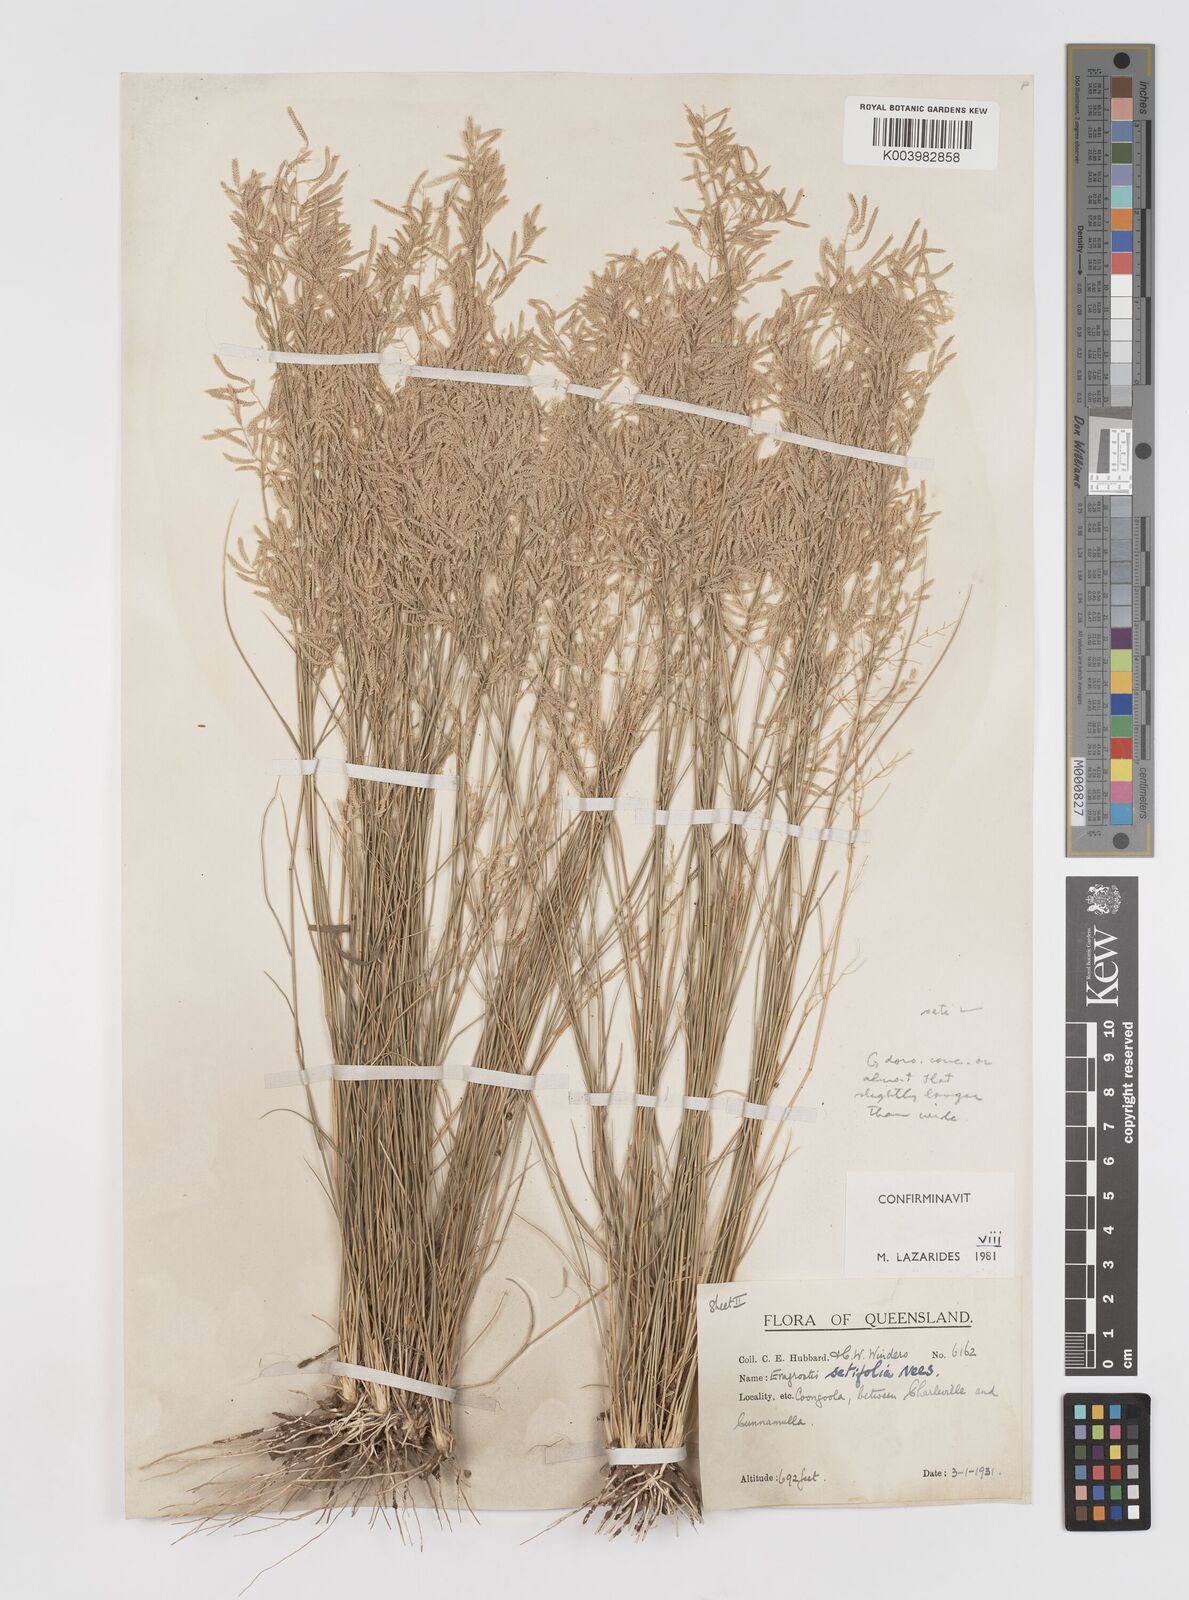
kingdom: Plantae
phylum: Tracheophyta
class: Liliopsida
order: Poales
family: Poaceae
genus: Eragrostis
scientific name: Eragrostis setifolia
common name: Bristleleaf lovegrass
